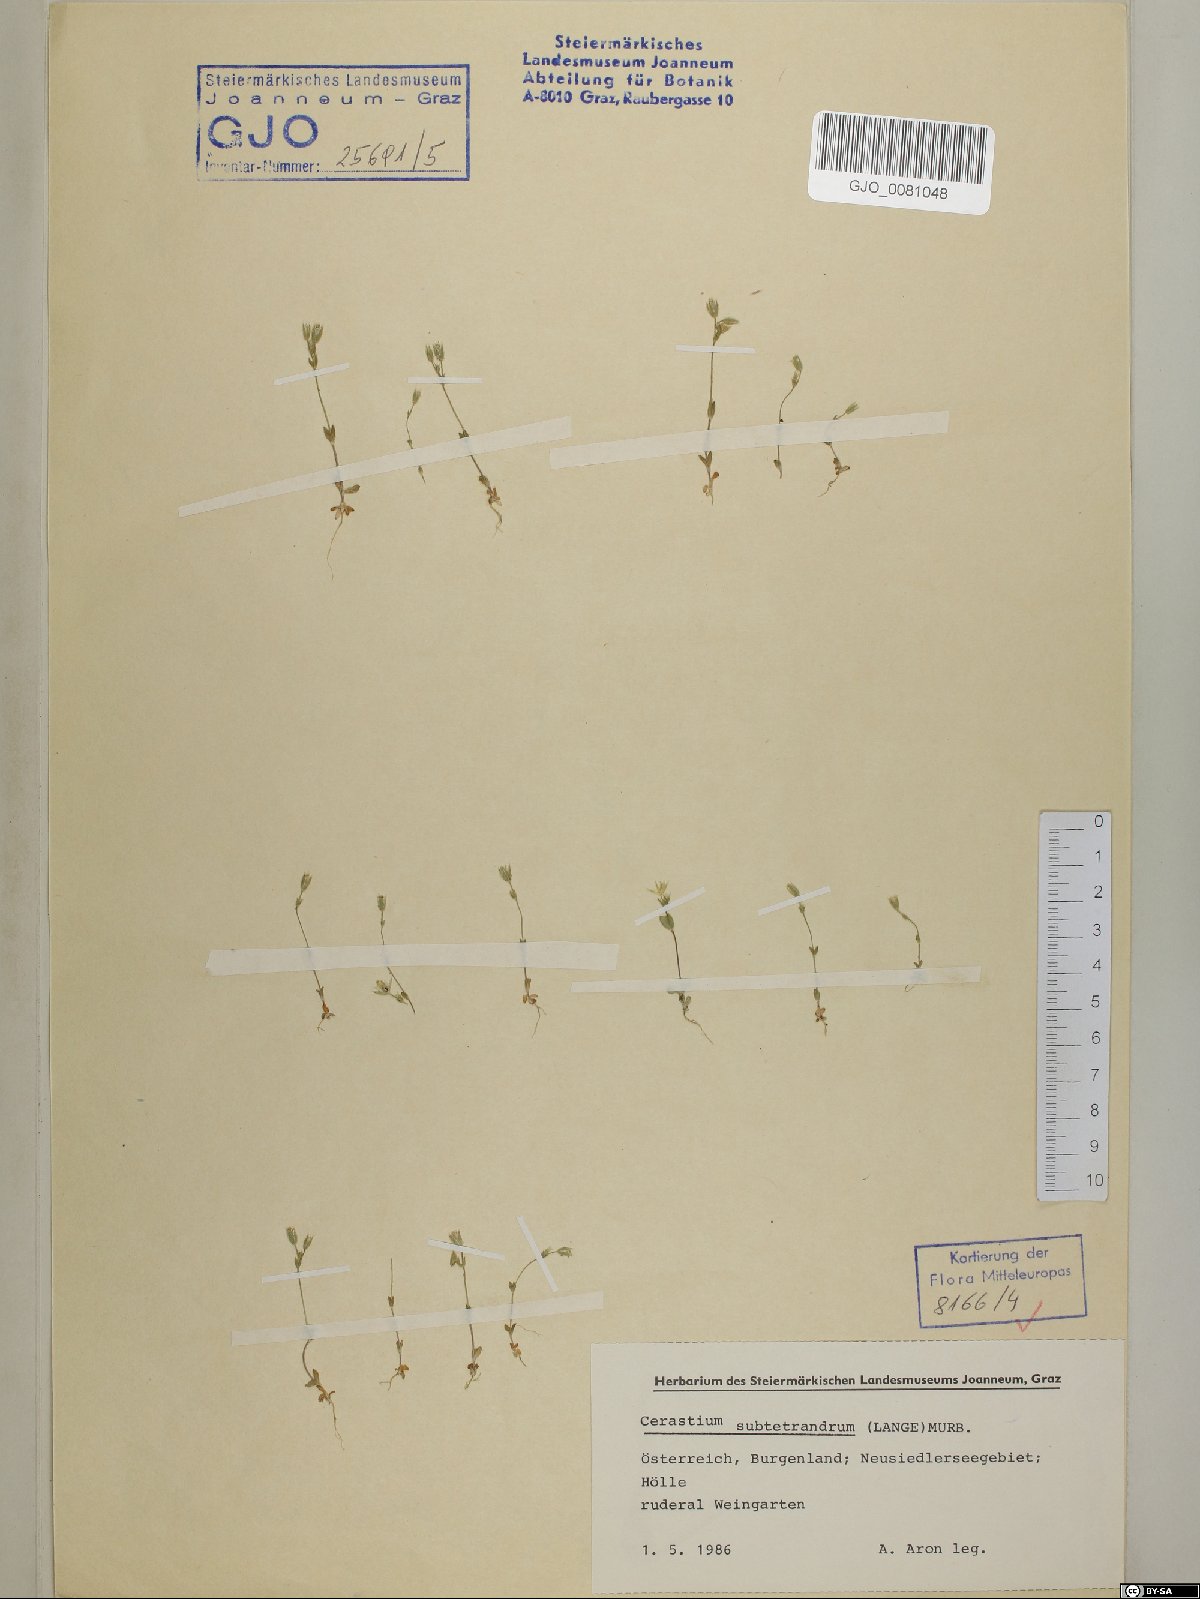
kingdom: Plantae
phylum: Tracheophyta
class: Magnoliopsida
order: Caryophyllales
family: Caryophyllaceae
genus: Cerastium
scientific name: Cerastium subtetrandrum
